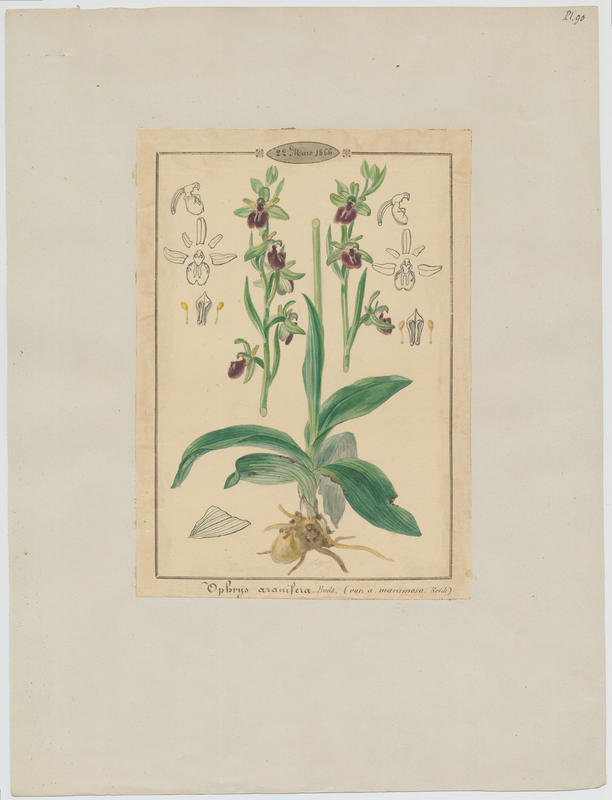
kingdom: Plantae
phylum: Tracheophyta
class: Liliopsida
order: Asparagales
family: Orchidaceae
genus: Ophrys
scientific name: Ophrys sphegodes
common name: Early spider-orchid
